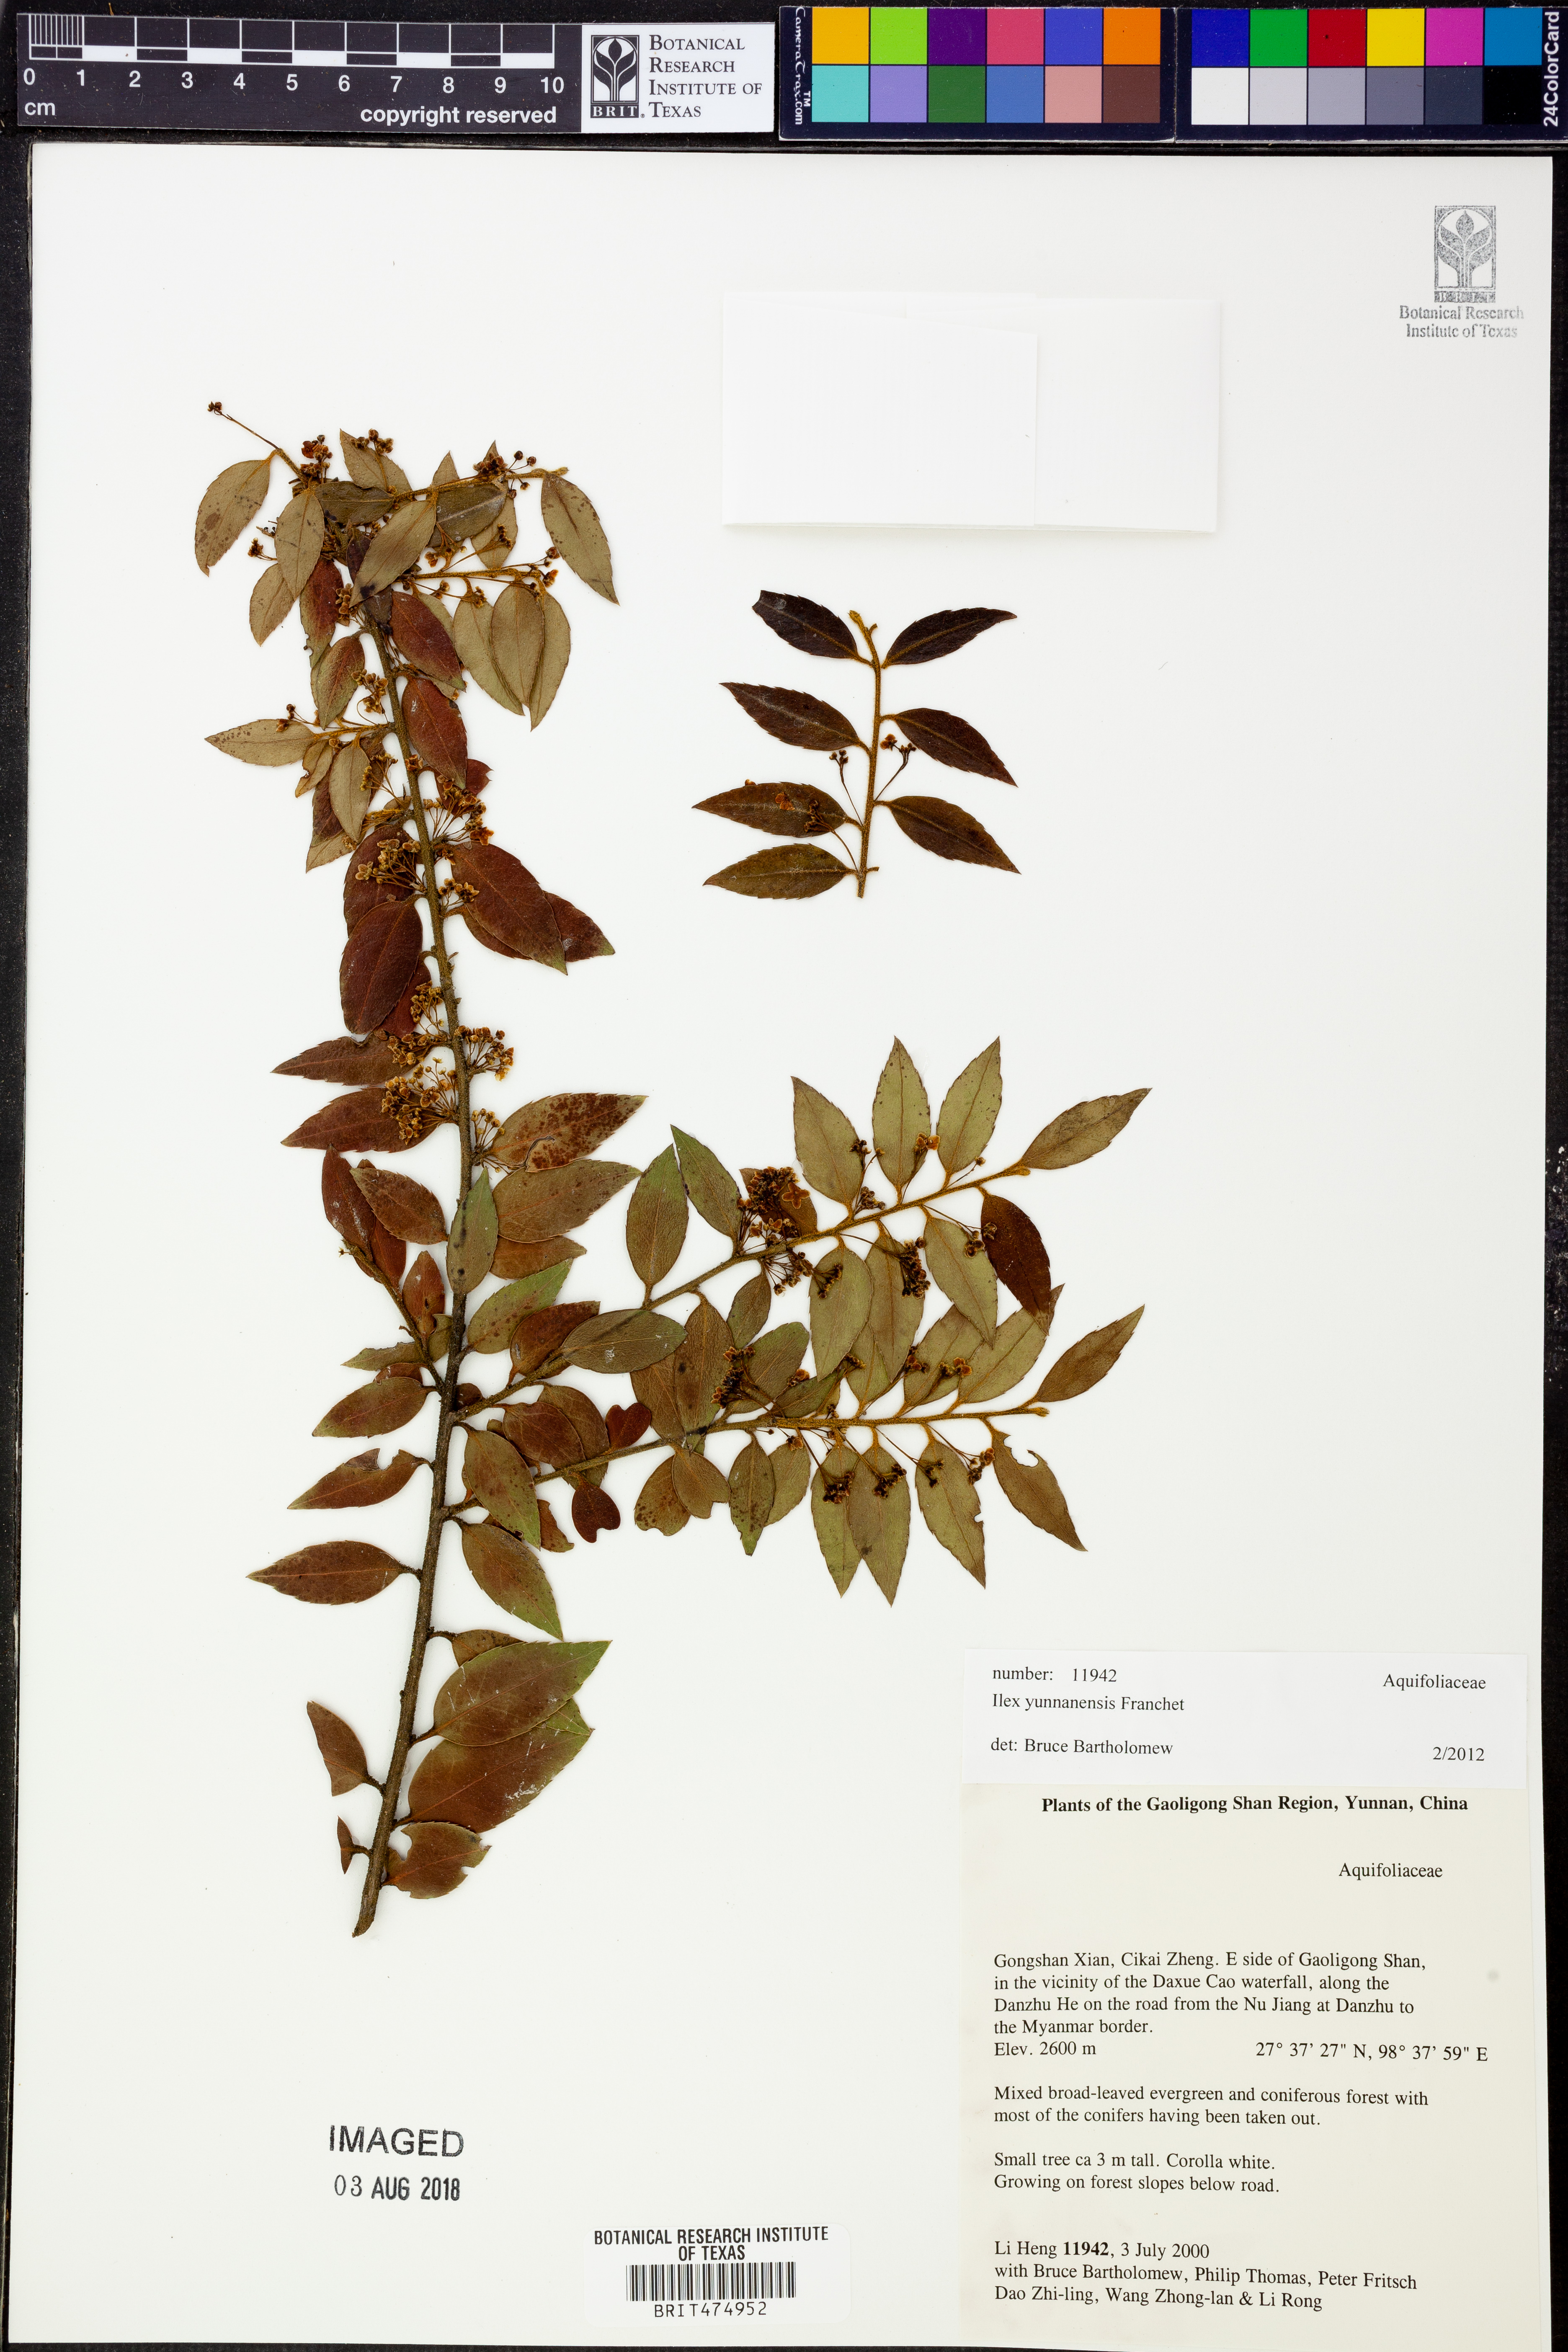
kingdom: Plantae
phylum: Tracheophyta
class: Magnoliopsida
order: Aquifoliales
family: Aquifoliaceae
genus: Ilex
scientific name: Ilex yunnanensis
